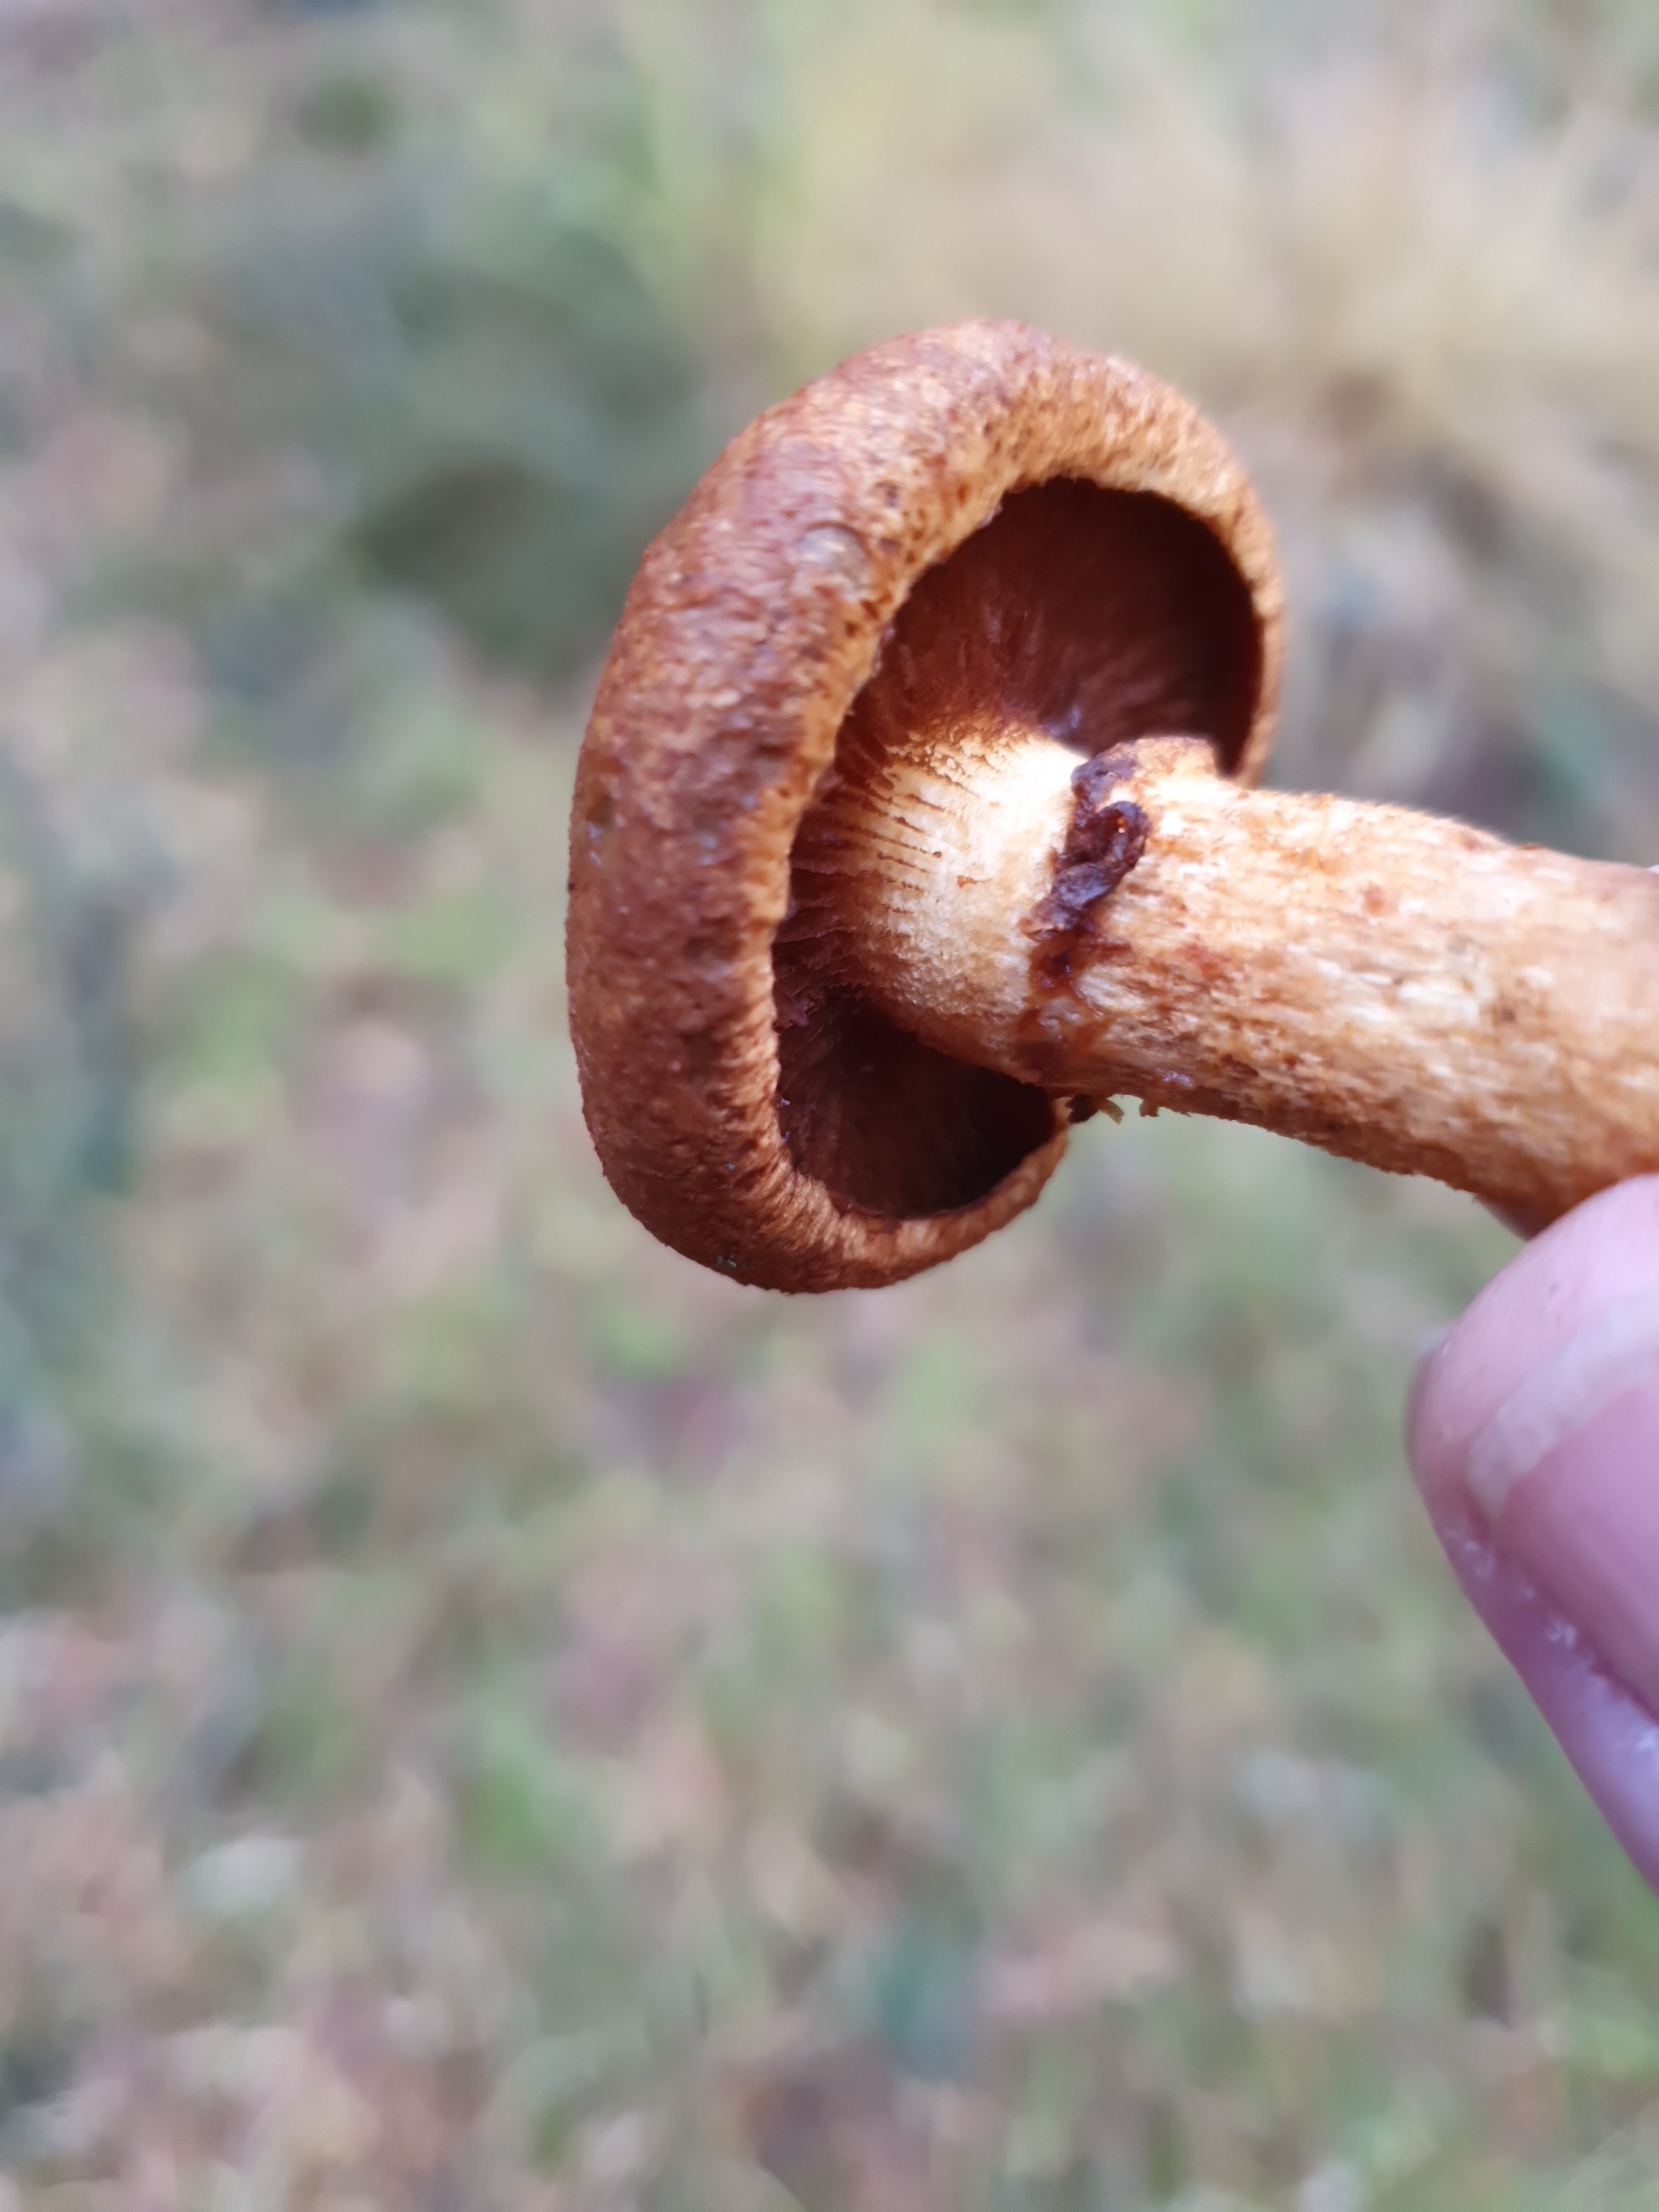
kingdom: Fungi
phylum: Basidiomycota
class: Agaricomycetes
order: Agaricales
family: Hymenogastraceae
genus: Gymnopilus
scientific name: Gymnopilus spectabilis
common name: fibret flammehat
